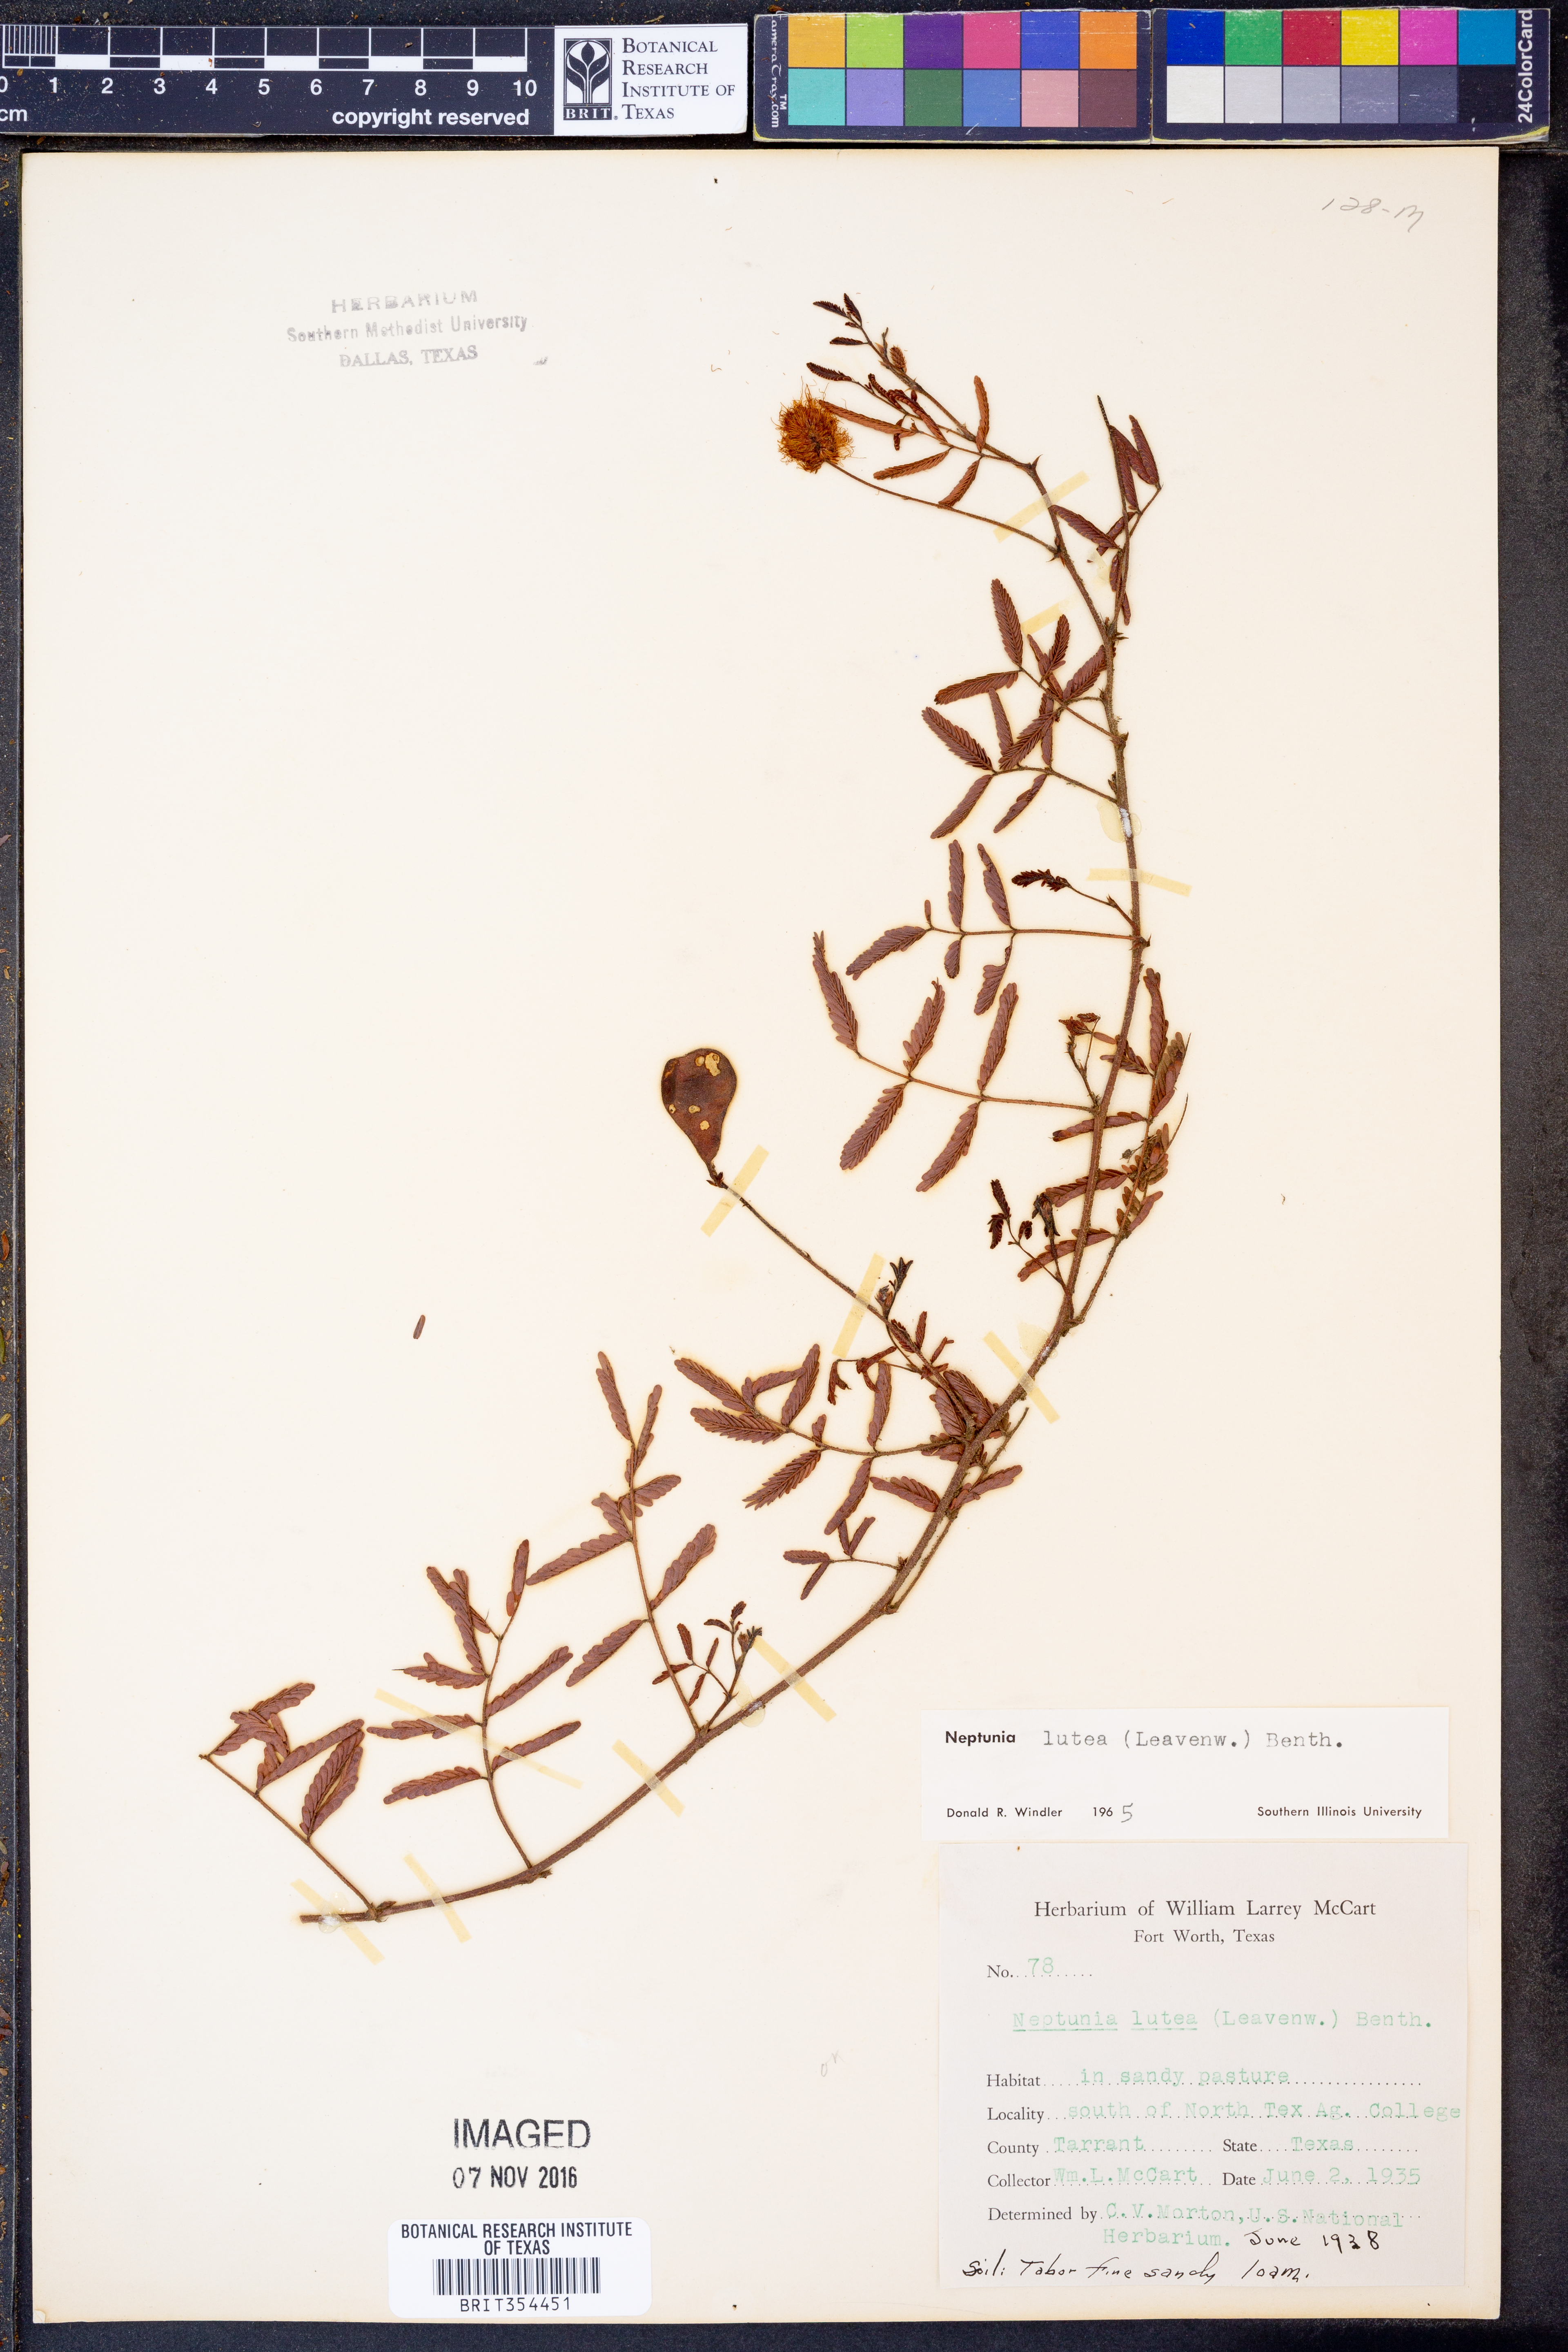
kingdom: Plantae
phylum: Tracheophyta
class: Magnoliopsida
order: Fabales
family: Fabaceae
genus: Neptunia
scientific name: Neptunia lutea
